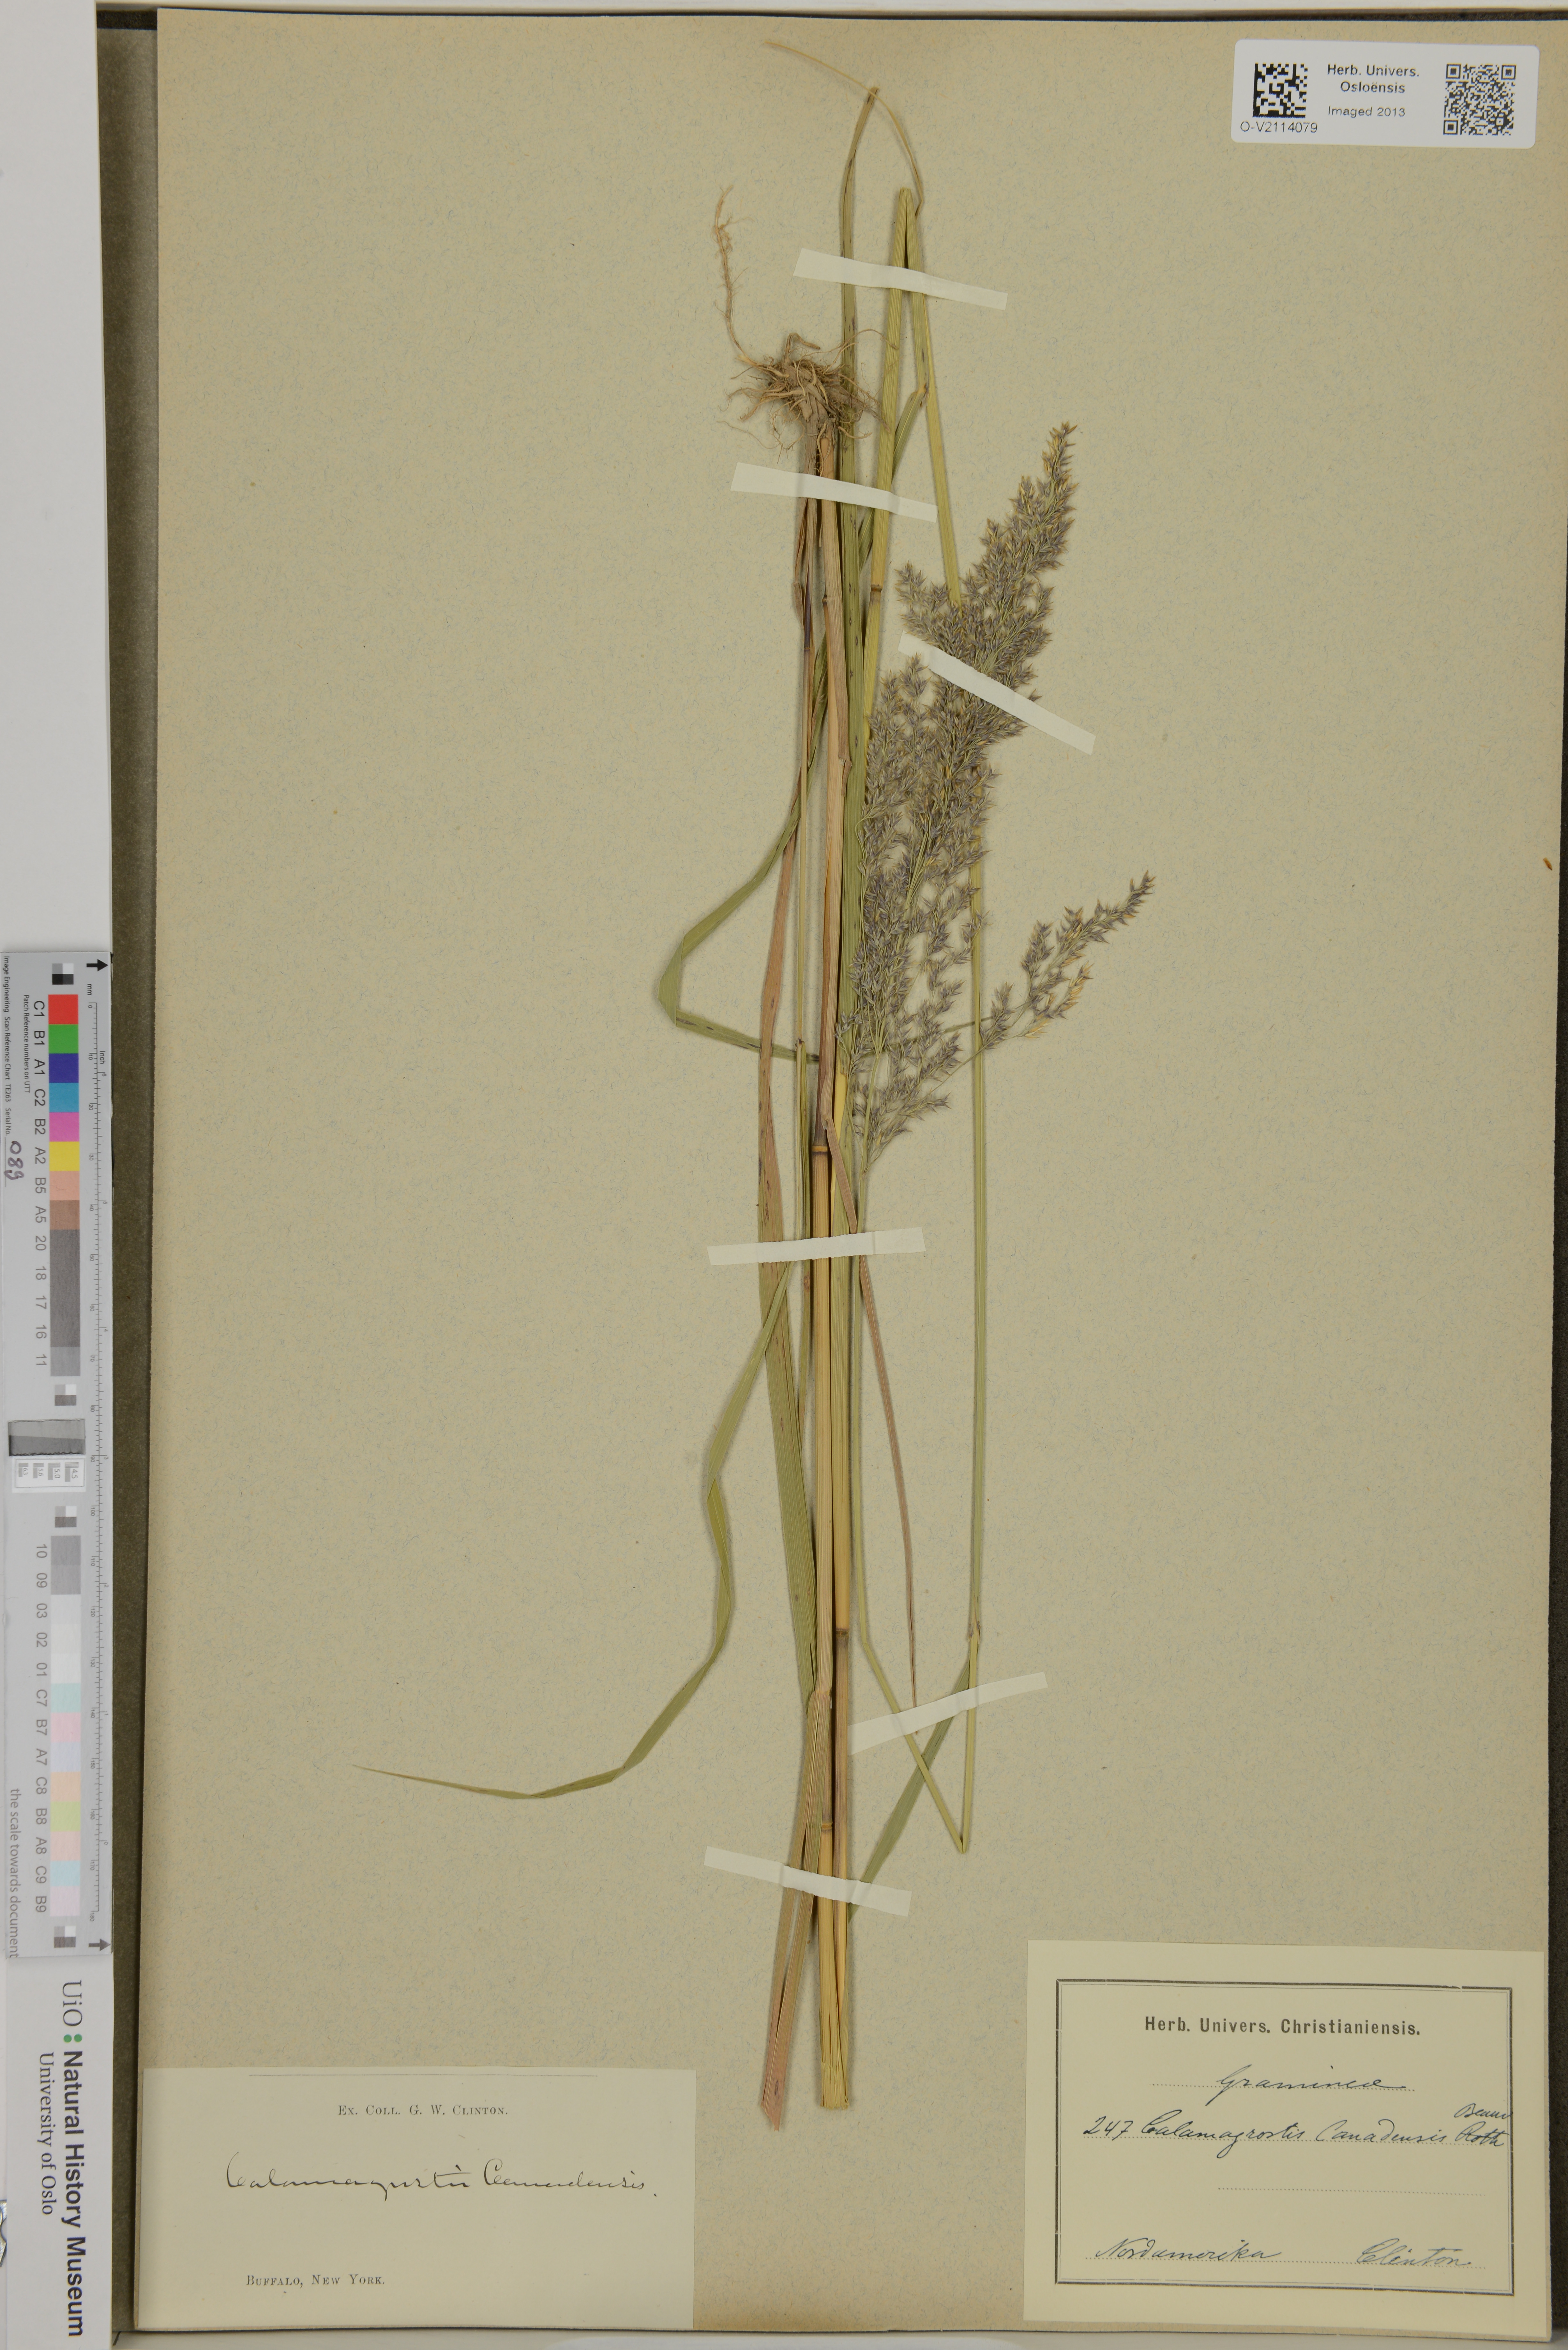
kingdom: Plantae
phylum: Tracheophyta
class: Liliopsida
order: Poales
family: Poaceae
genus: Calamagrostis
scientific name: Calamagrostis canescens
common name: Purple small-reed
